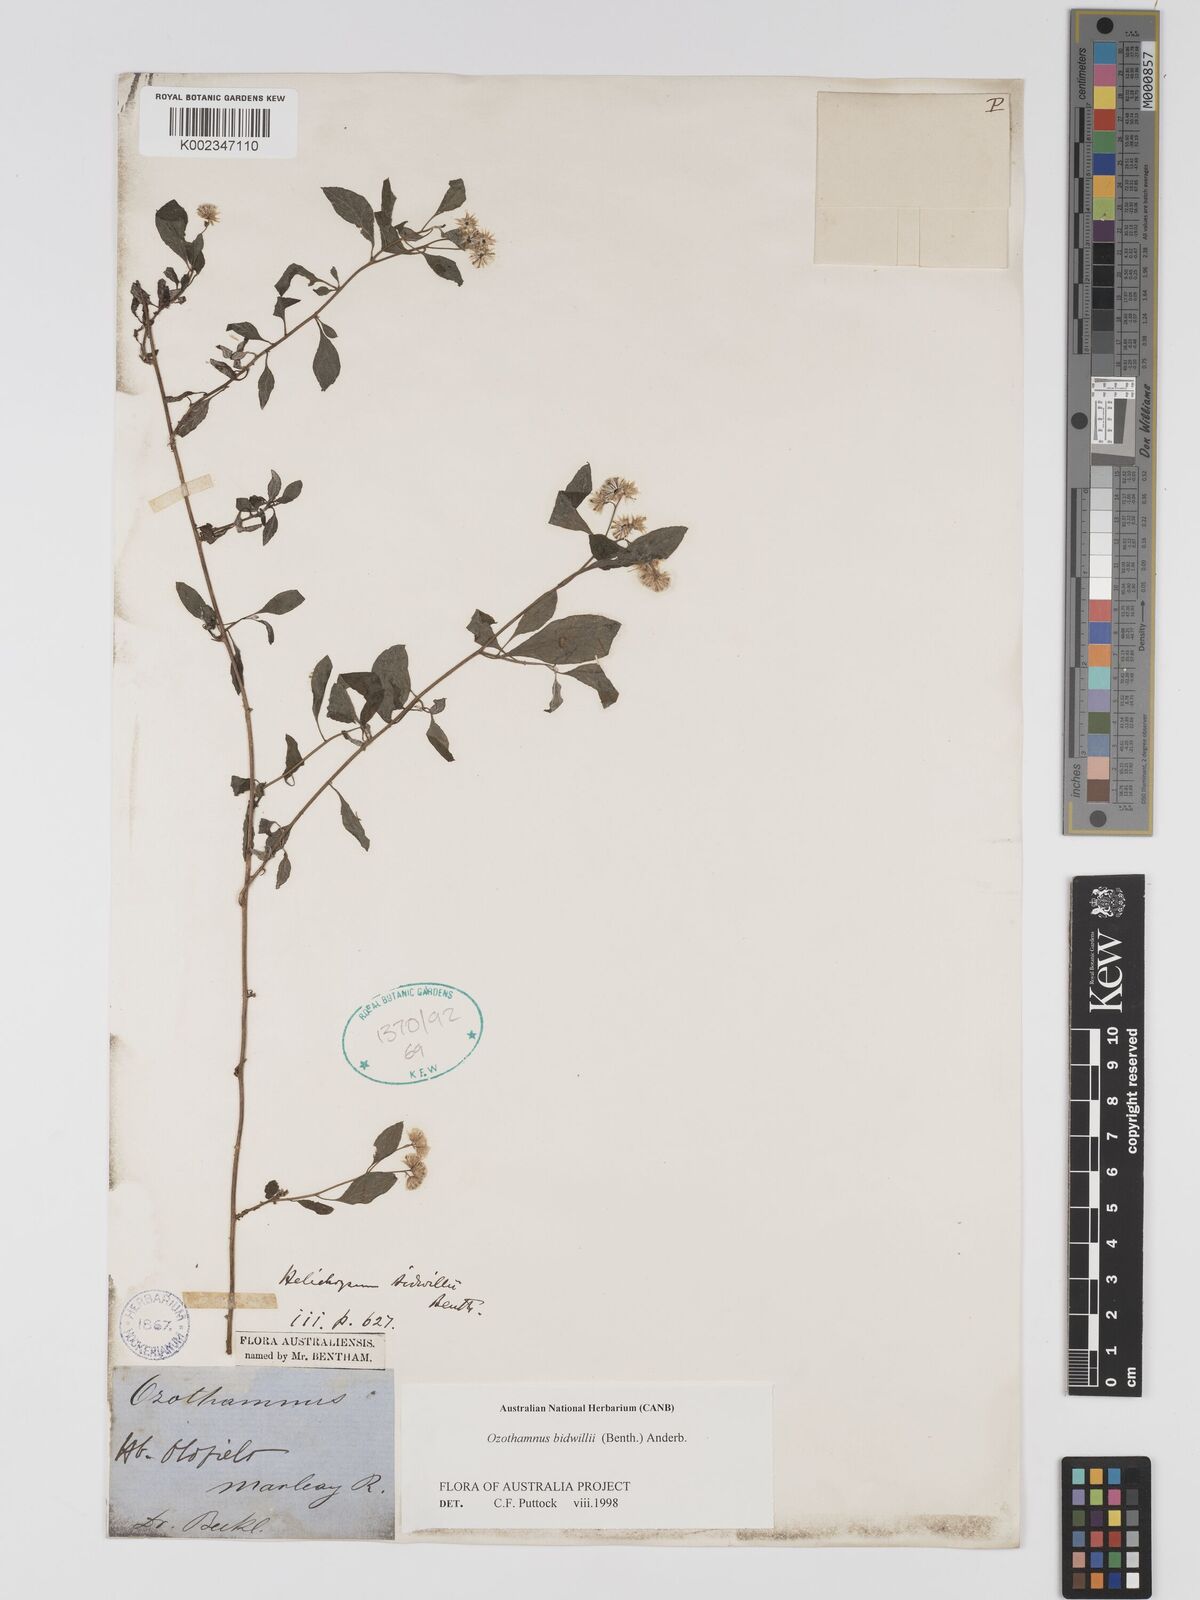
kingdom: Plantae
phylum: Tracheophyta
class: Magnoliopsida
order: Asterales
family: Asteraceae
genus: Ozothamnus
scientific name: Ozothamnus bidwillii
